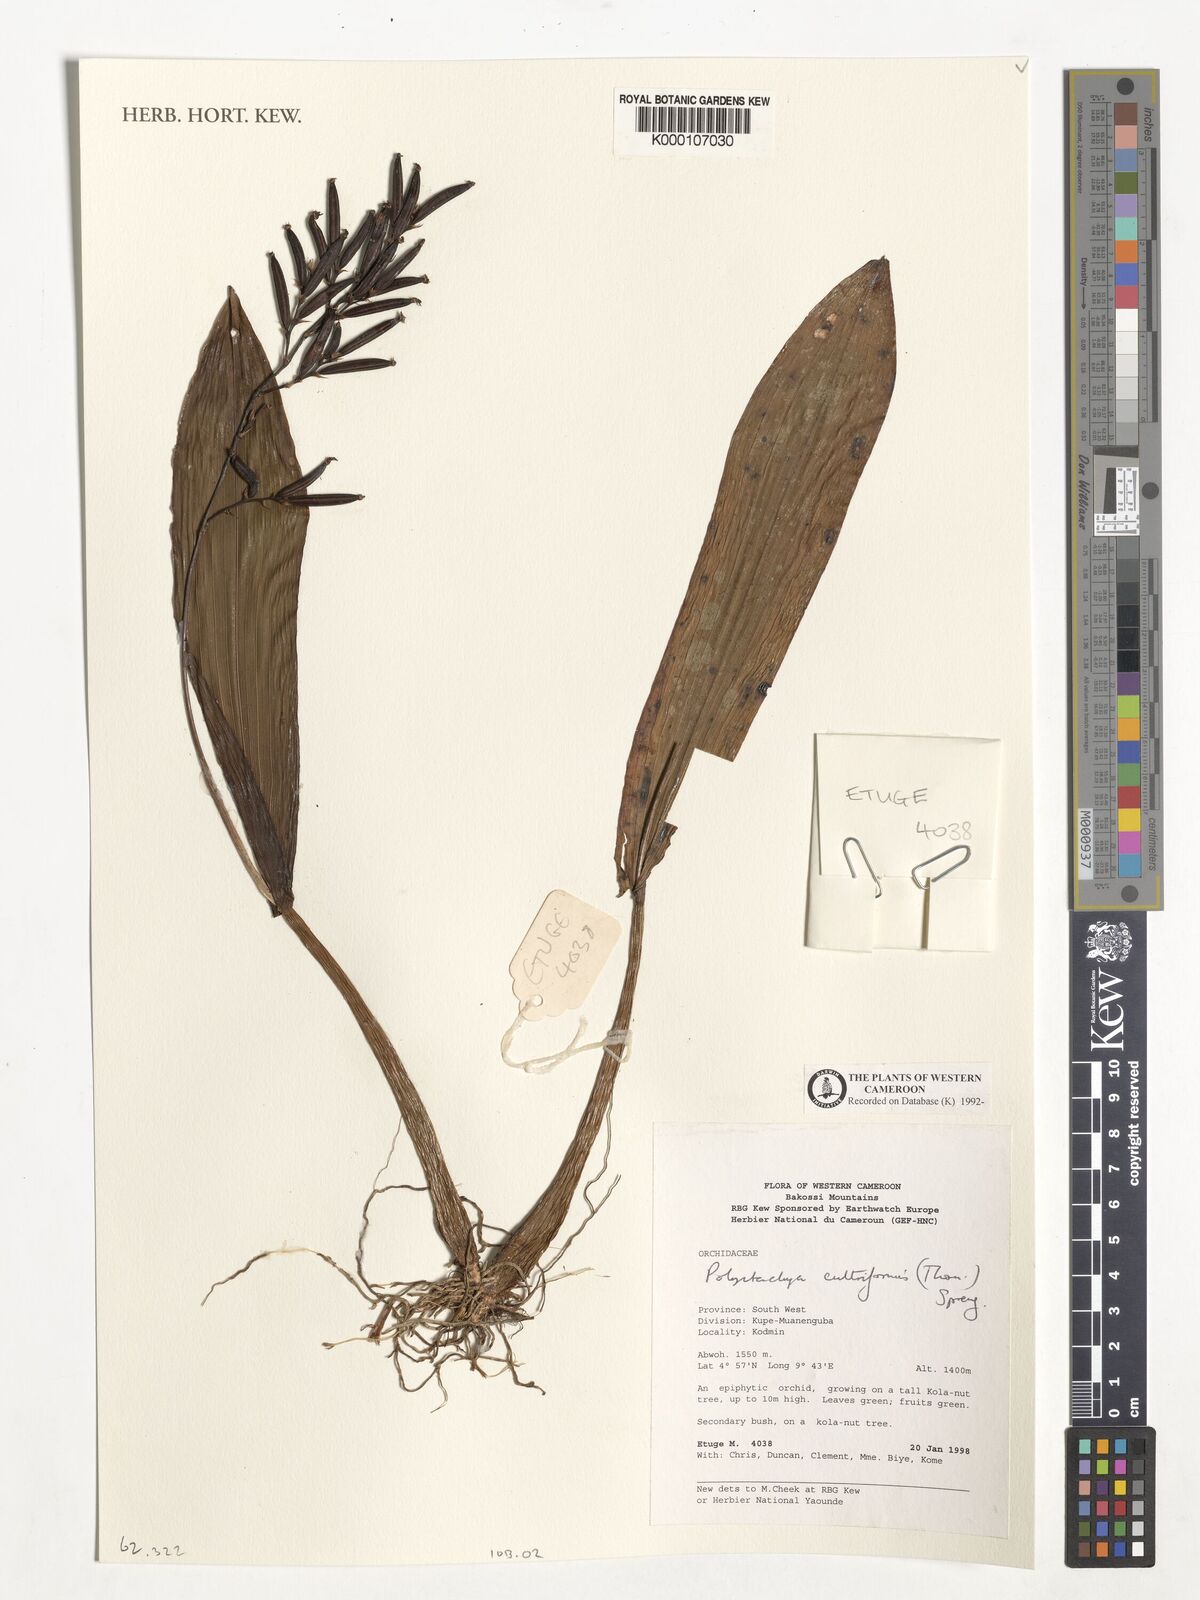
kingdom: Plantae
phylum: Tracheophyta
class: Liliopsida
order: Asparagales
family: Orchidaceae
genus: Polystachya
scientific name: Polystachya cultriformis
